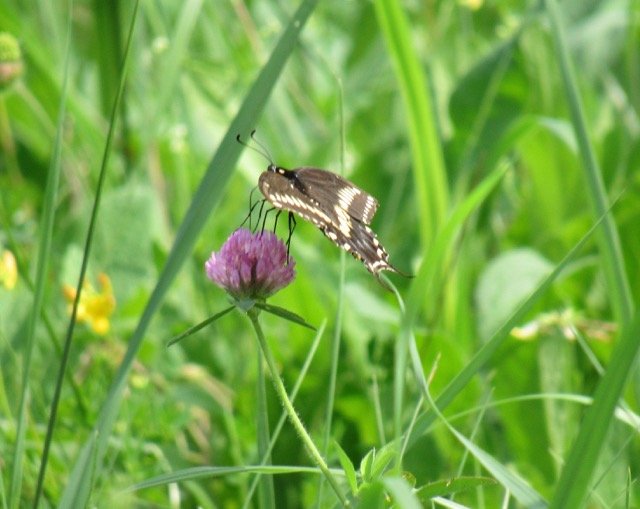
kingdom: Animalia
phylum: Arthropoda
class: Insecta
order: Lepidoptera
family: Papilionidae
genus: Papilio
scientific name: Papilio polyxenes
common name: Black Swallowtail
